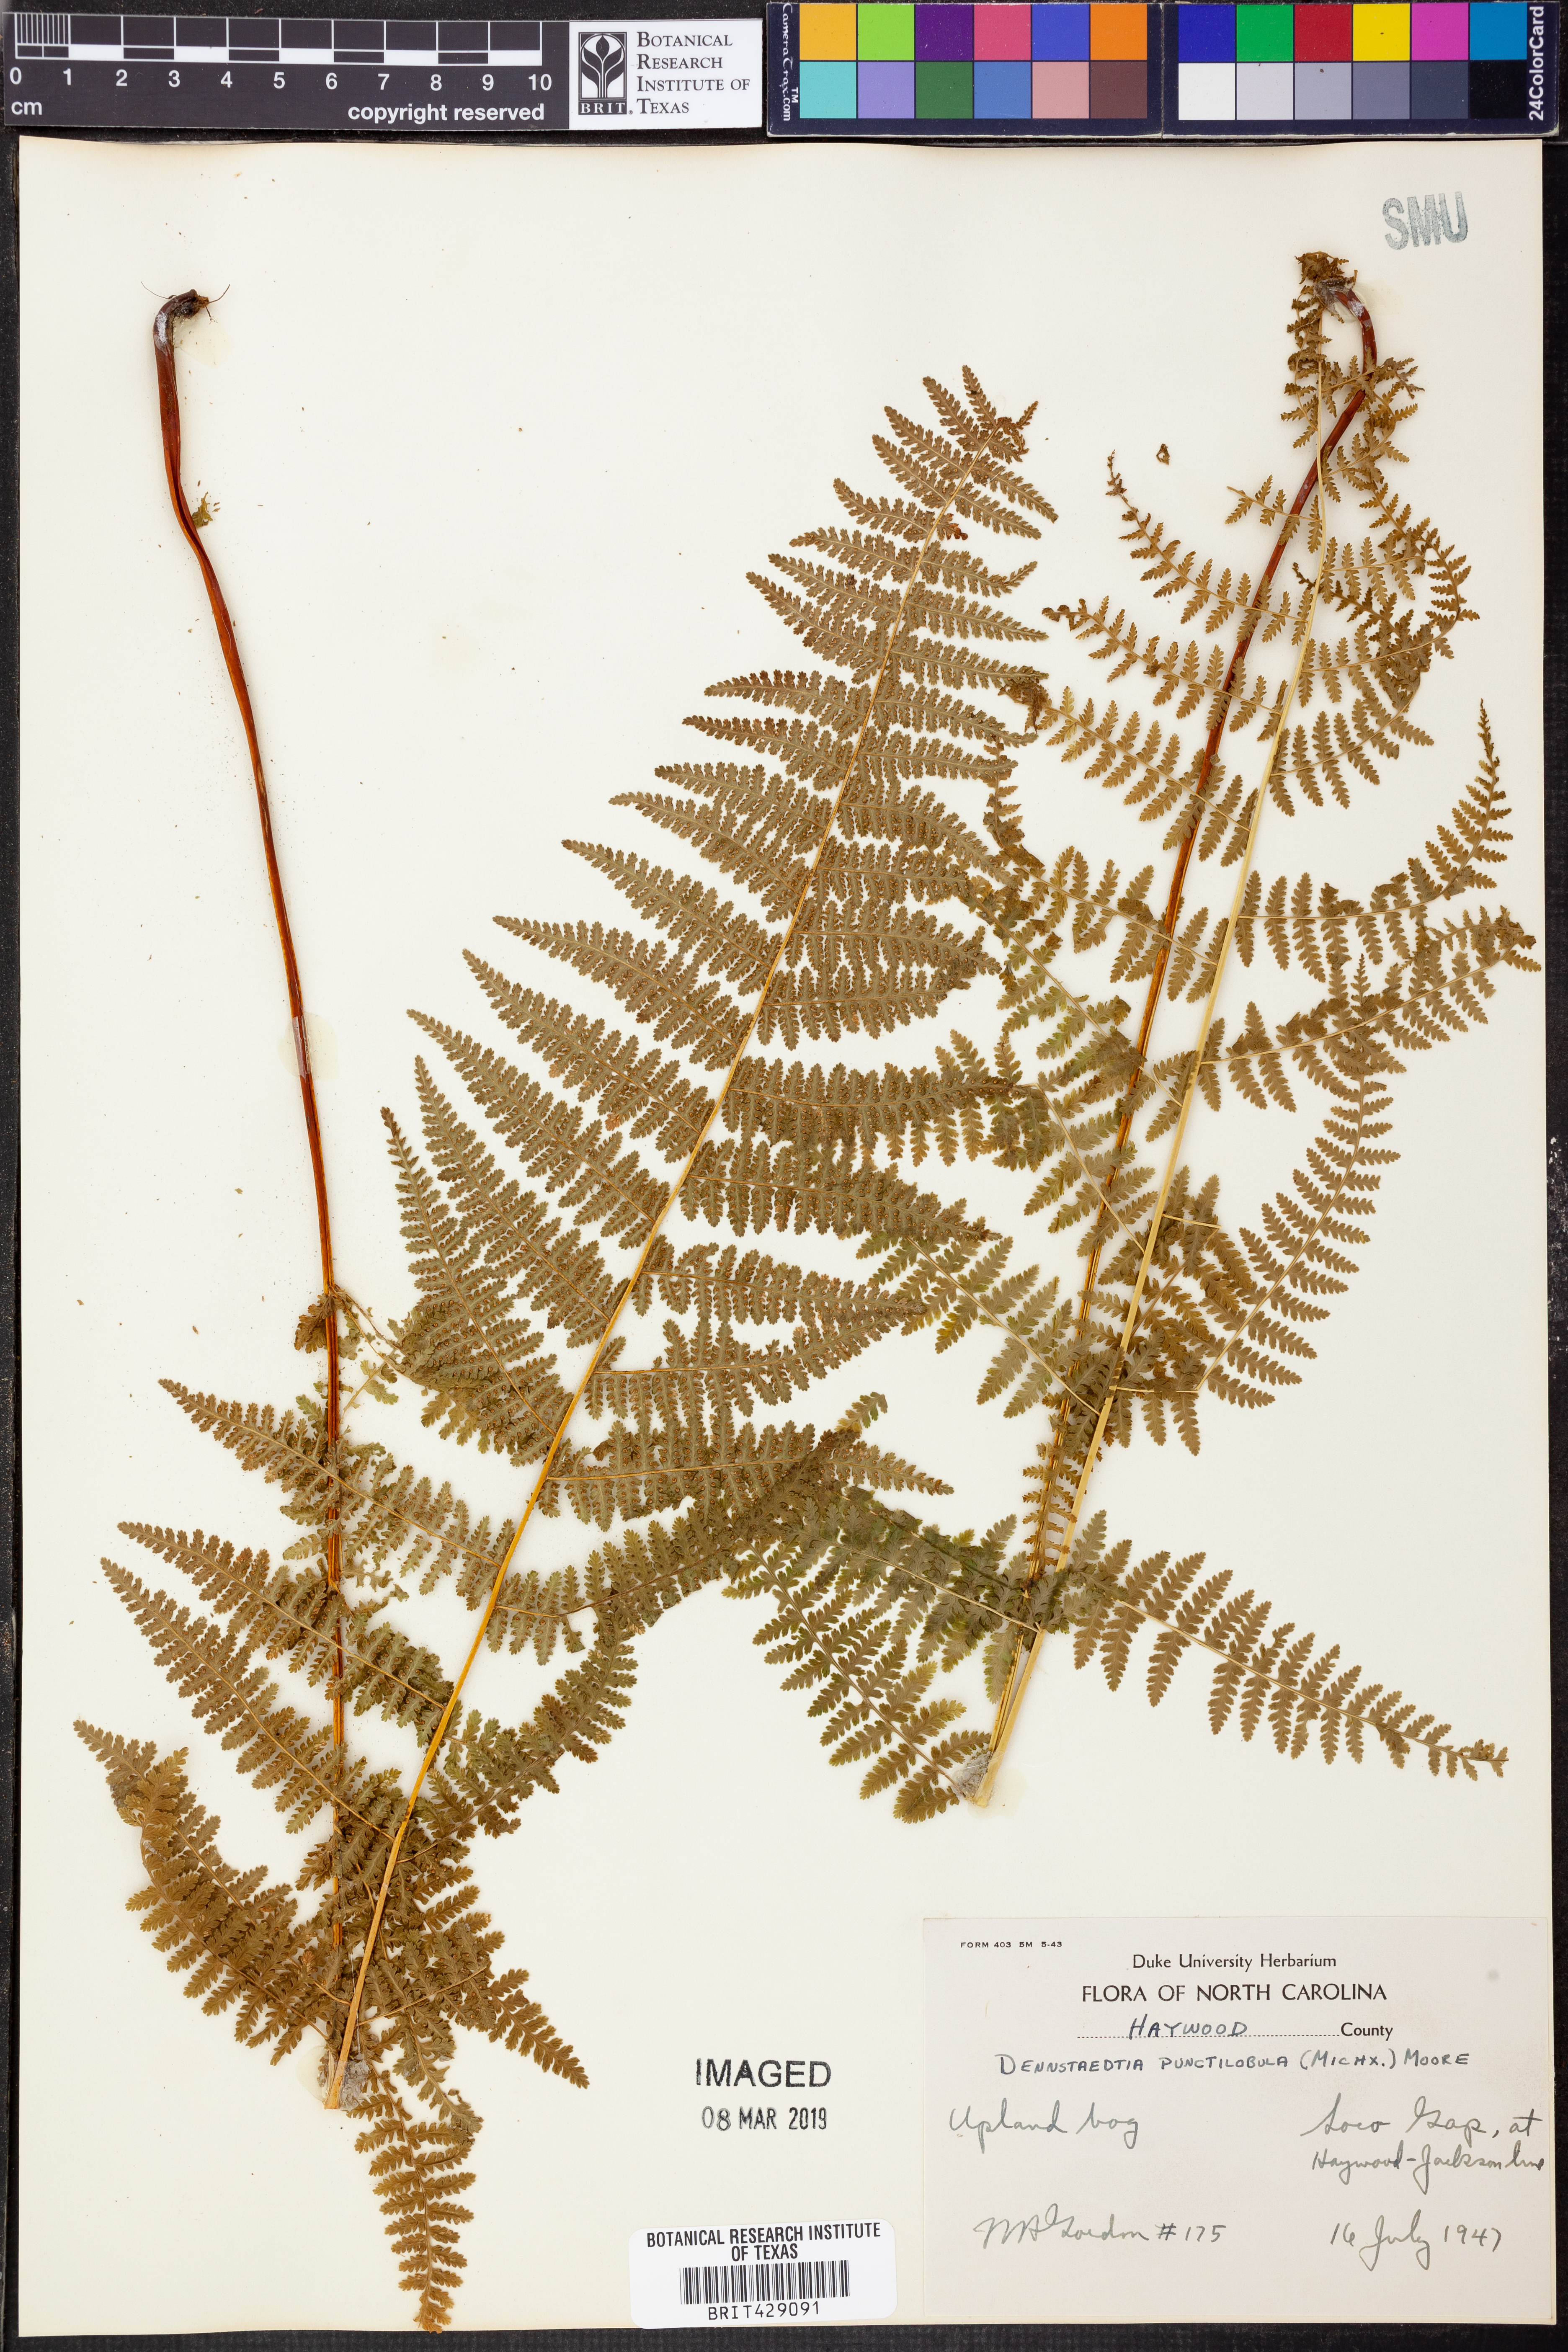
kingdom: Plantae
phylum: Tracheophyta
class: Polypodiopsida
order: Polypodiales
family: Dennstaedtiaceae
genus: Sitobolium
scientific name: Sitobolium punctilobum
